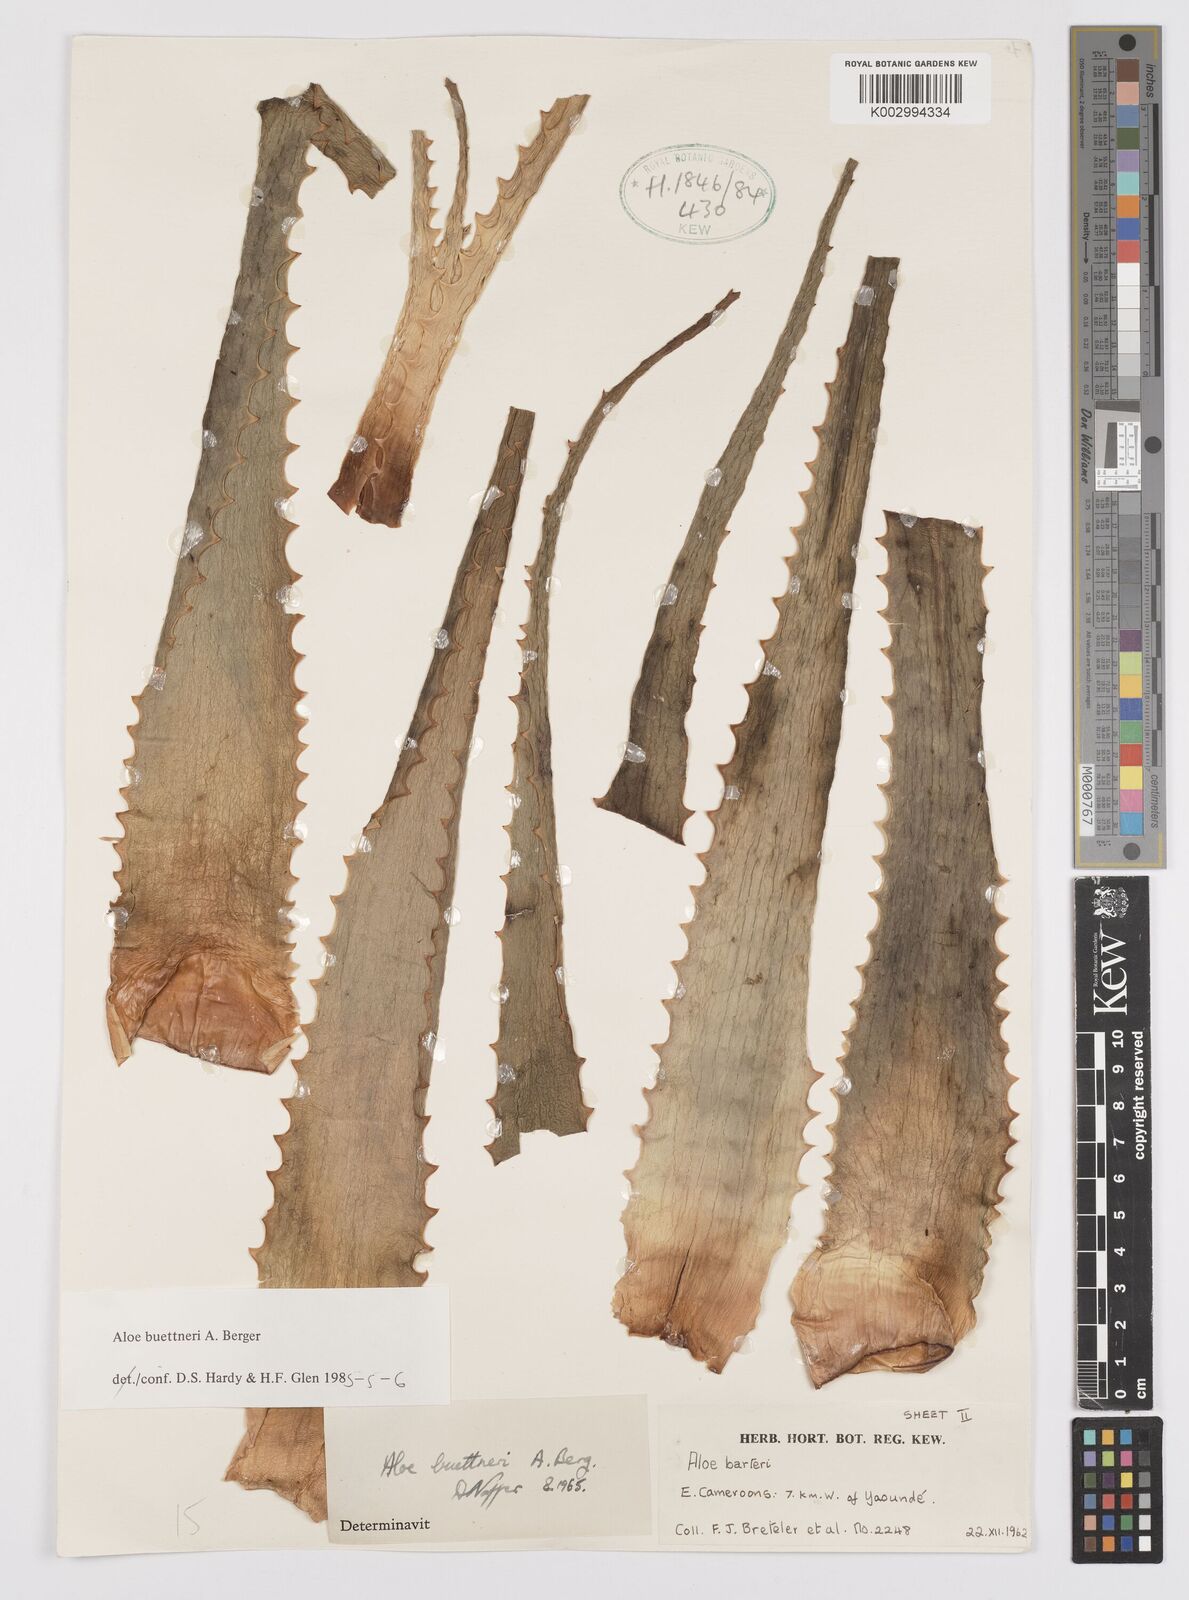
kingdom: Plantae
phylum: Tracheophyta
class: Liliopsida
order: Asparagales
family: Asphodelaceae
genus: Aloe
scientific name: Aloe seretii
